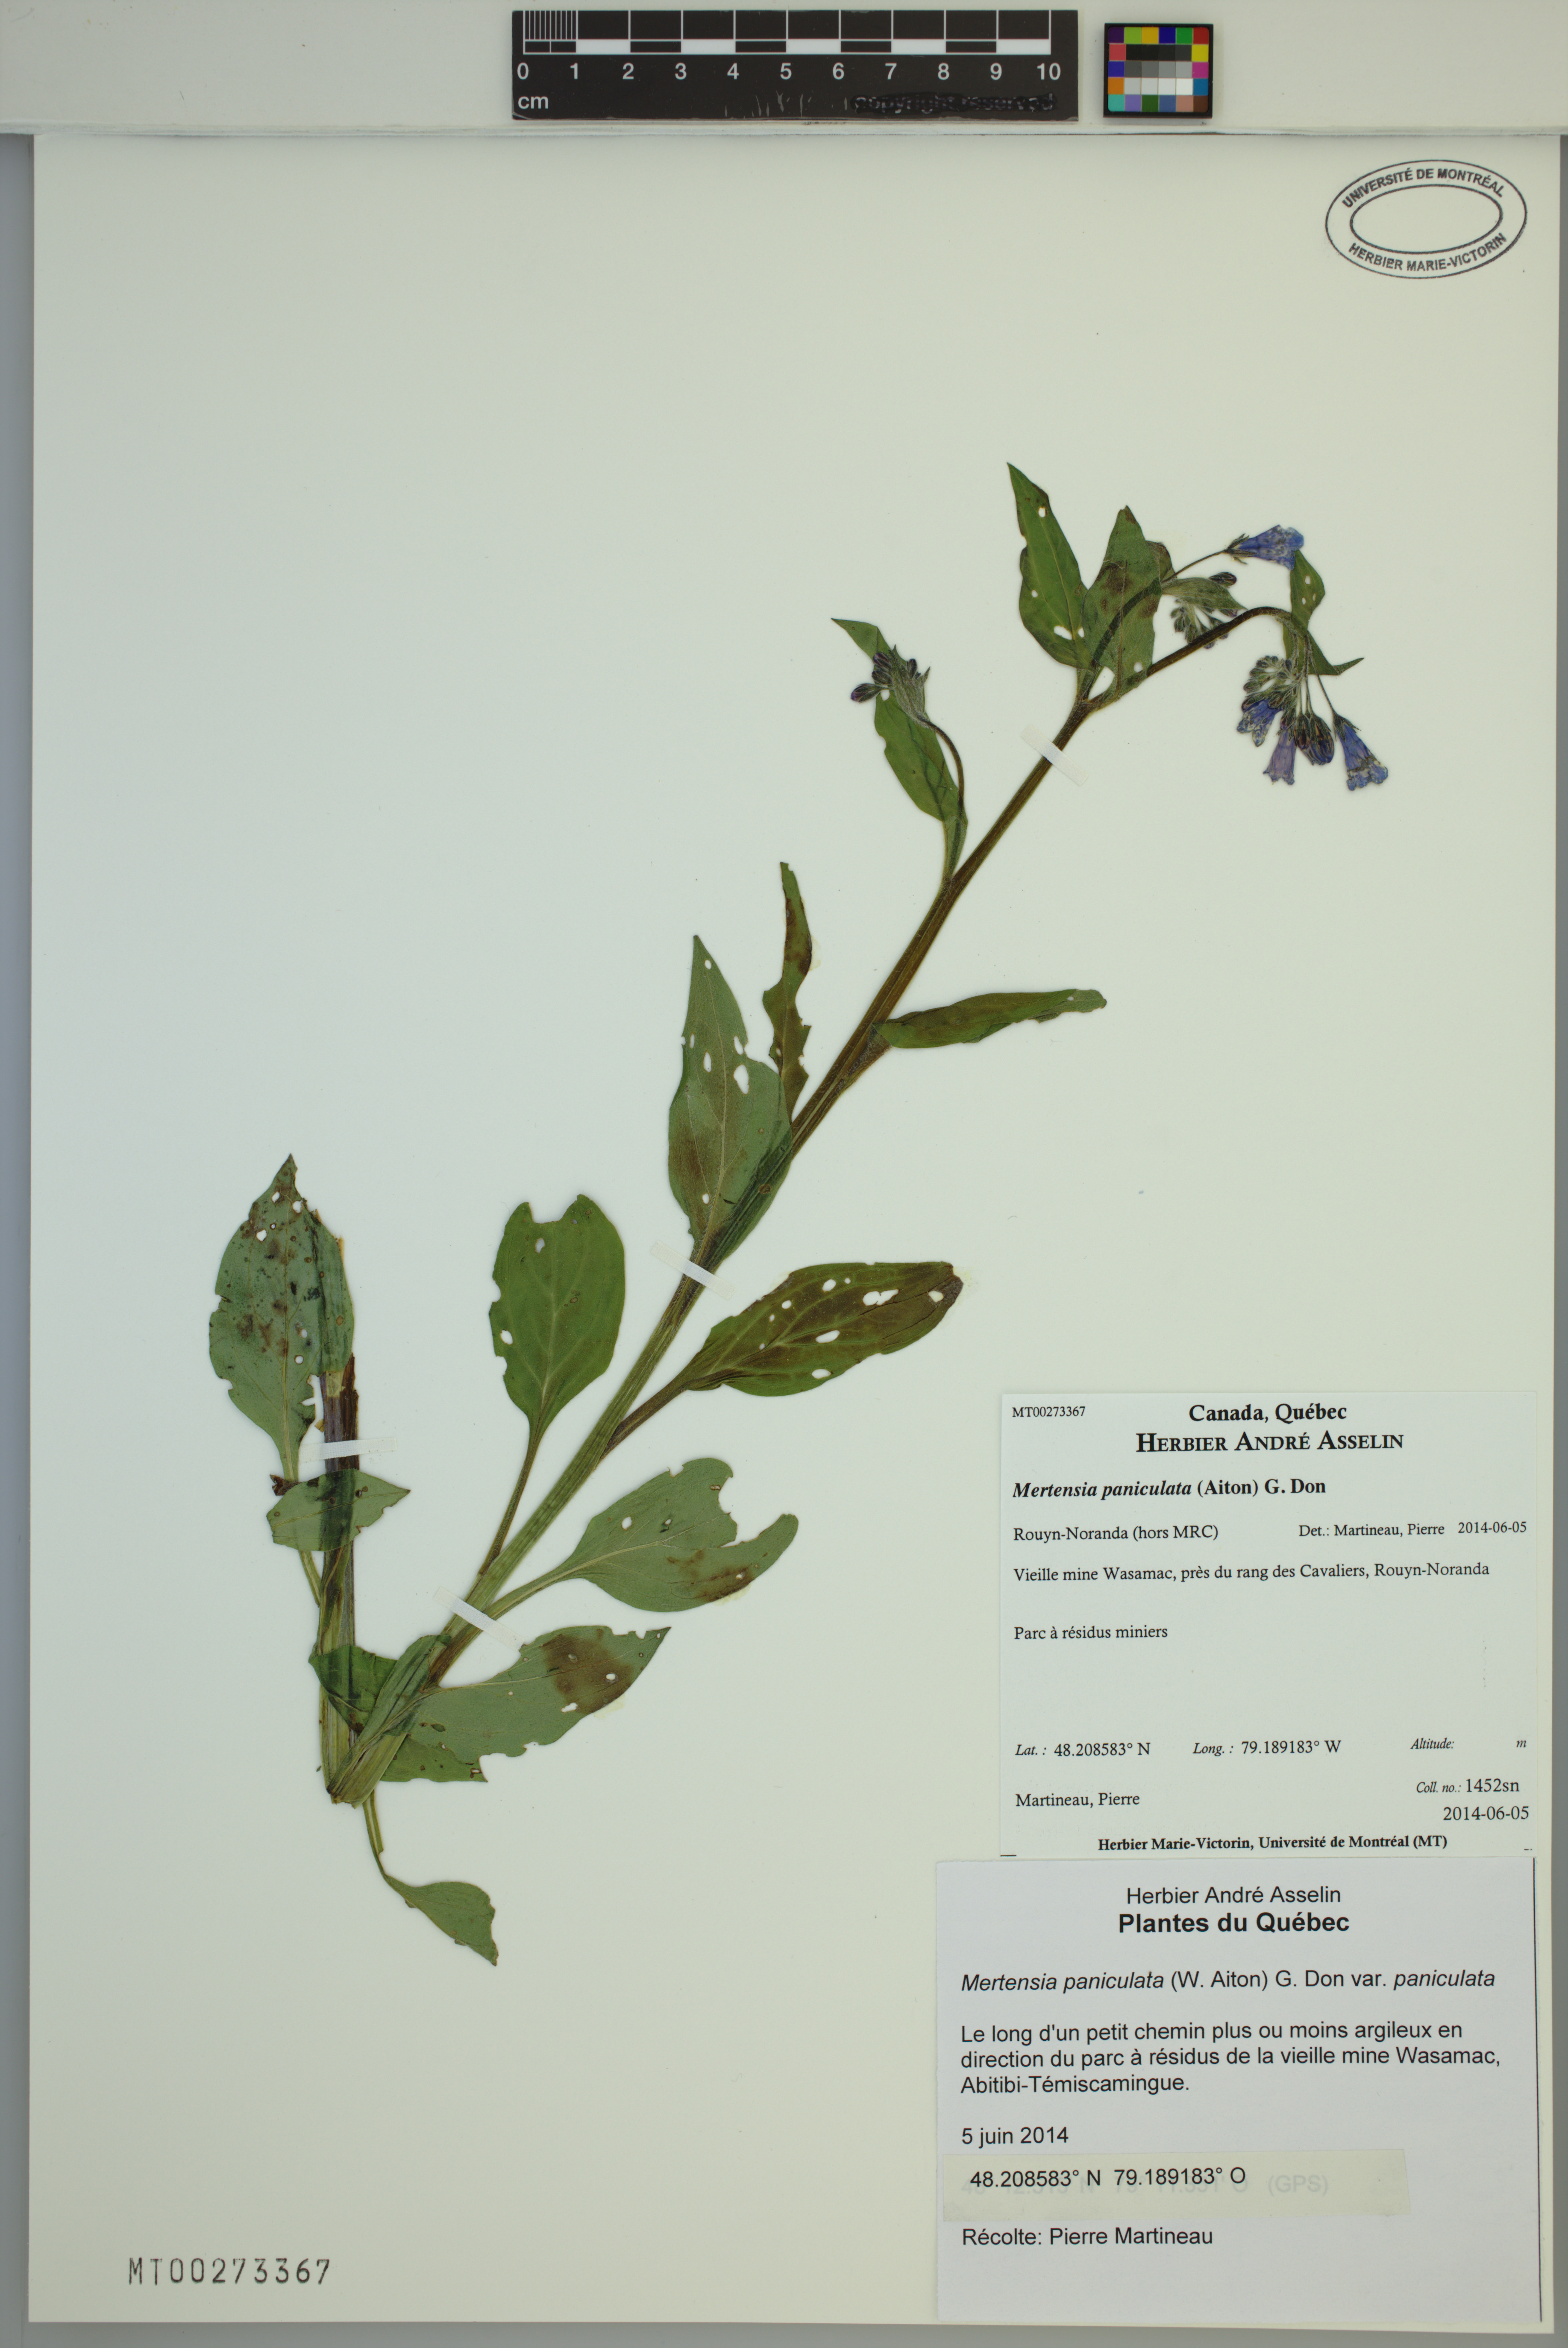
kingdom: Plantae
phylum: Tracheophyta
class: Magnoliopsida
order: Boraginales
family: Boraginaceae
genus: Mertensia
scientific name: Mertensia paniculata
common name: Panicled bluebells
